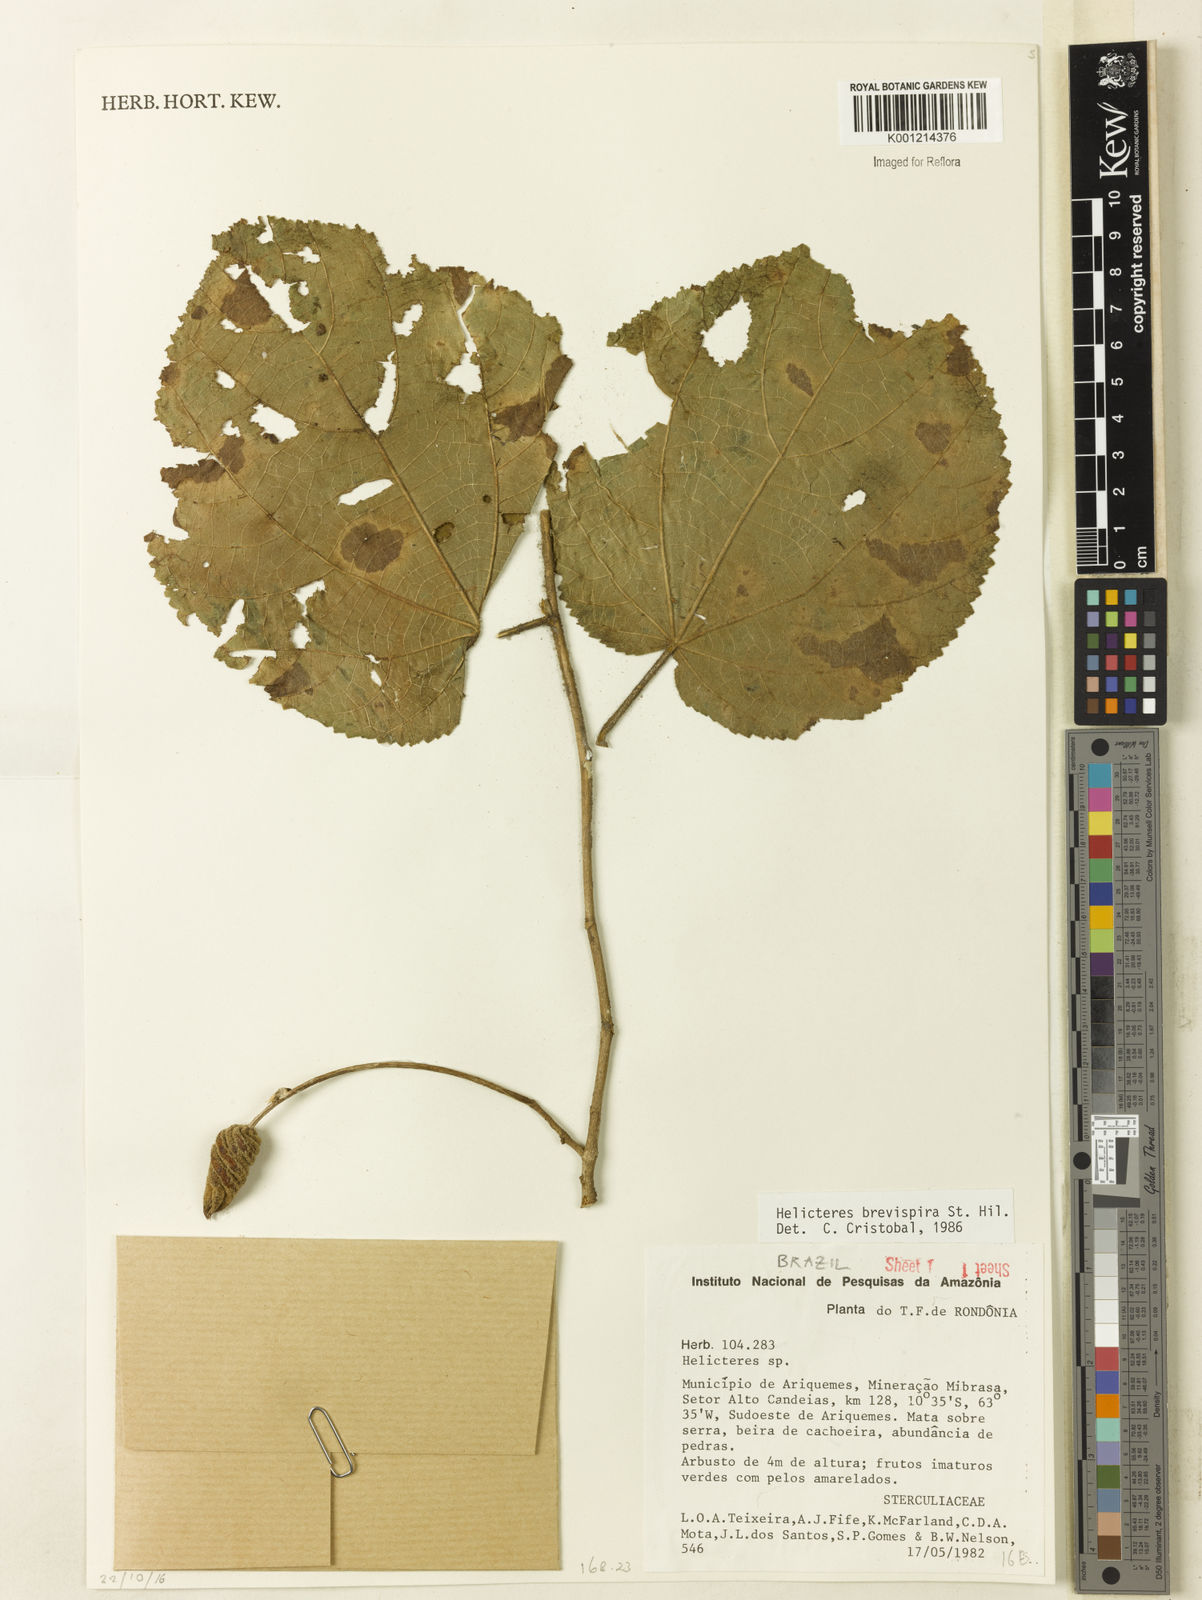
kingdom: Plantae
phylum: Tracheophyta
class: Magnoliopsida
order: Malvales
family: Malvaceae
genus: Helicteres
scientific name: Helicteres
